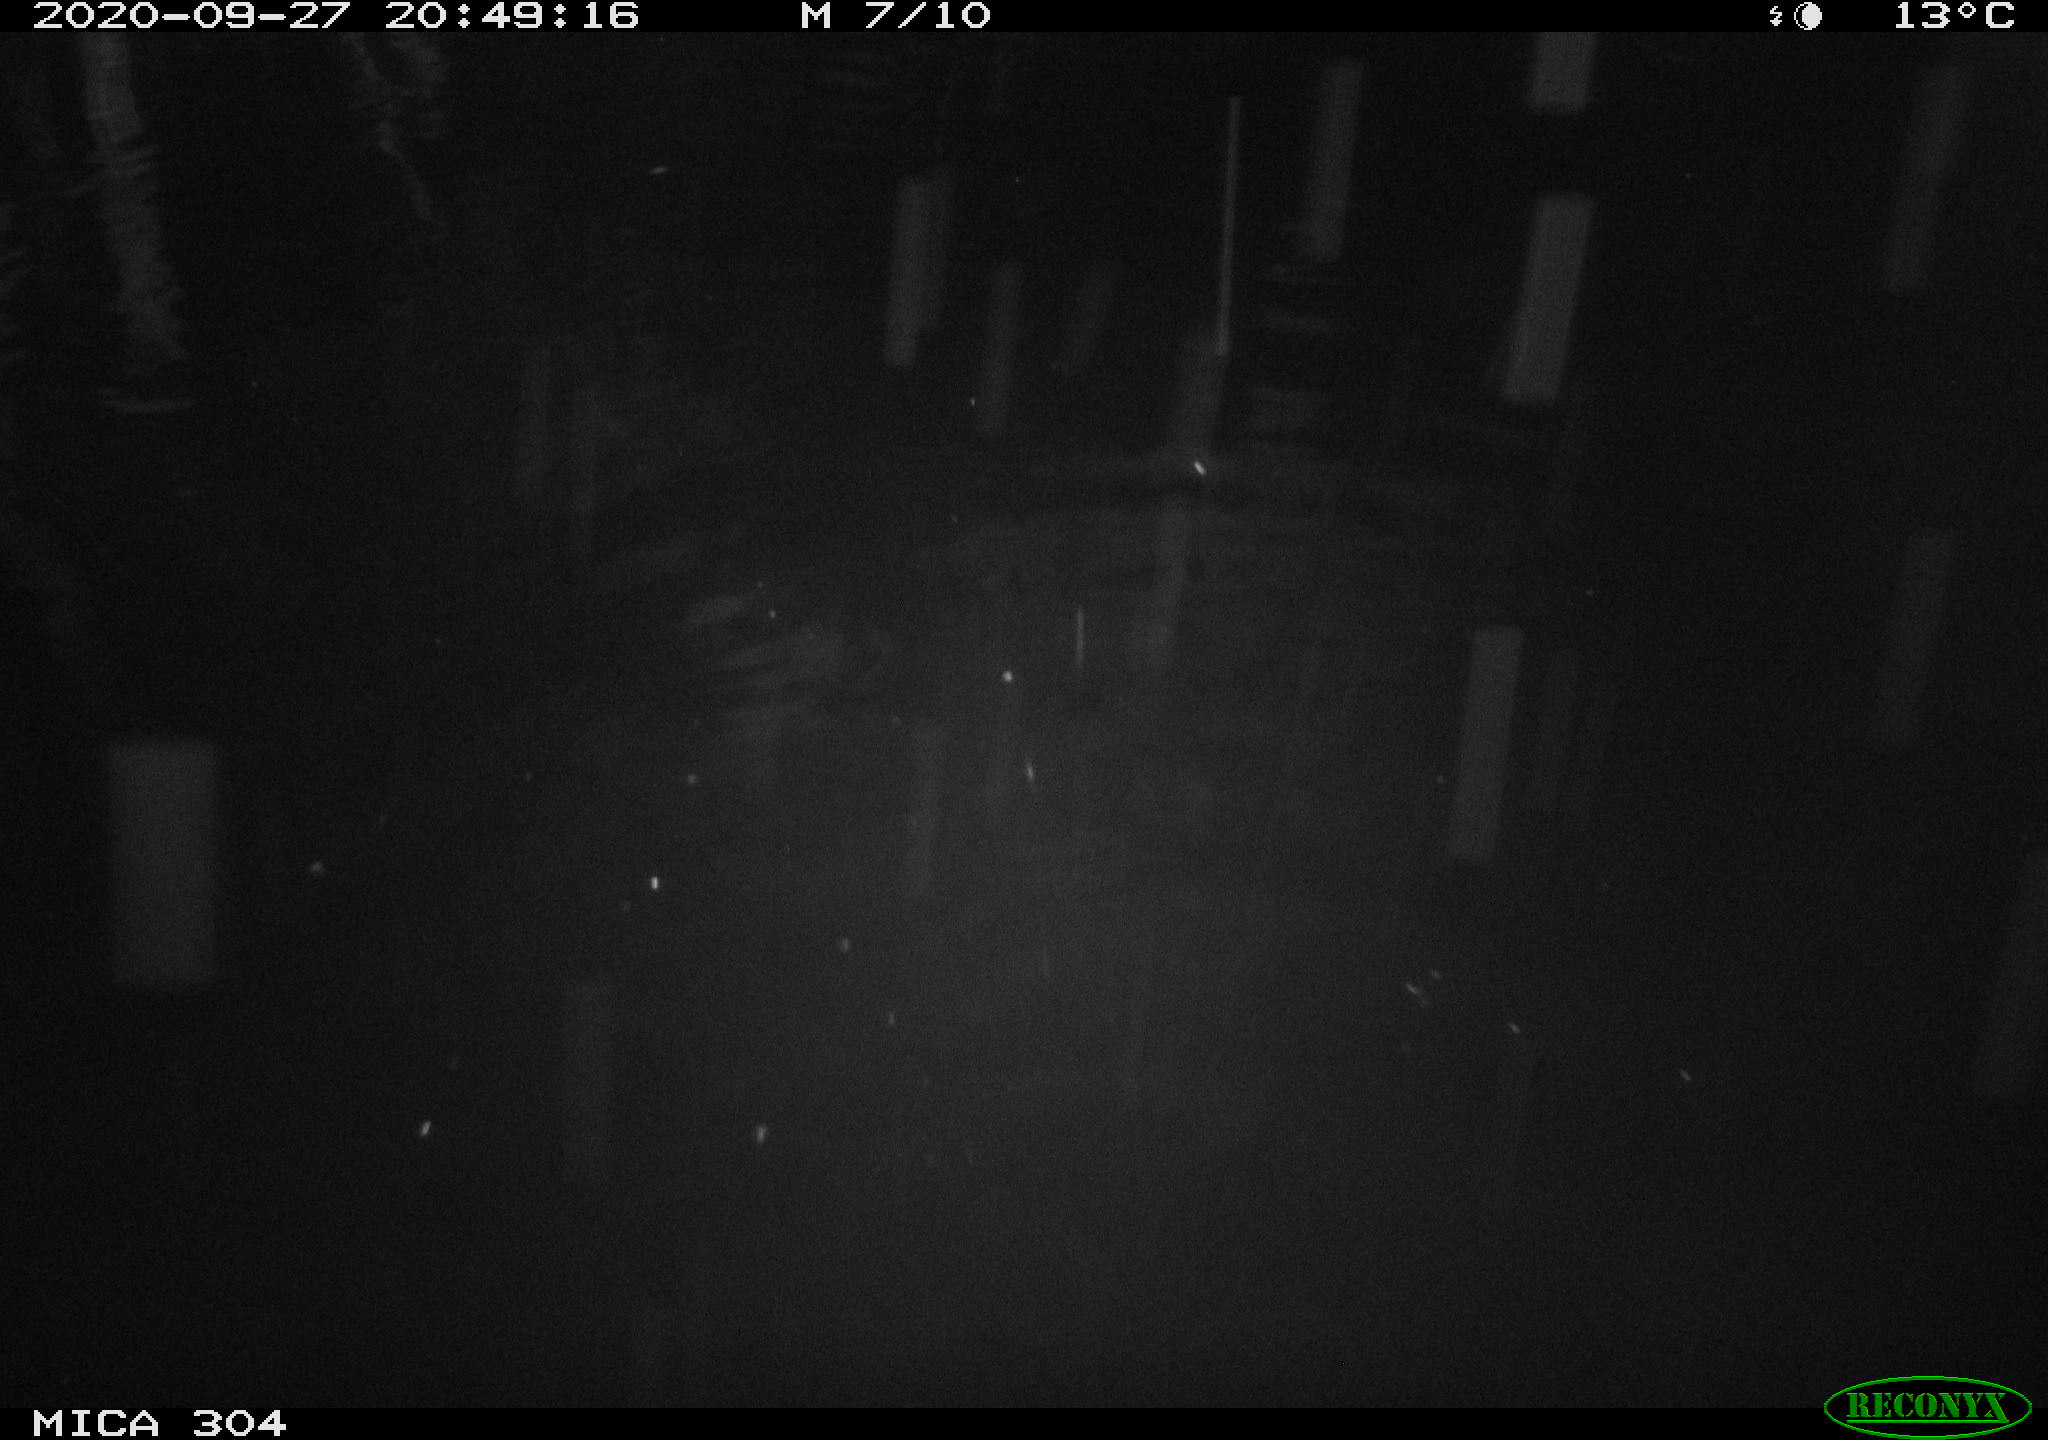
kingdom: Animalia
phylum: Chordata
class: Mammalia
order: Rodentia
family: Muridae
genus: Rattus
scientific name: Rattus norvegicus
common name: Brown rat
